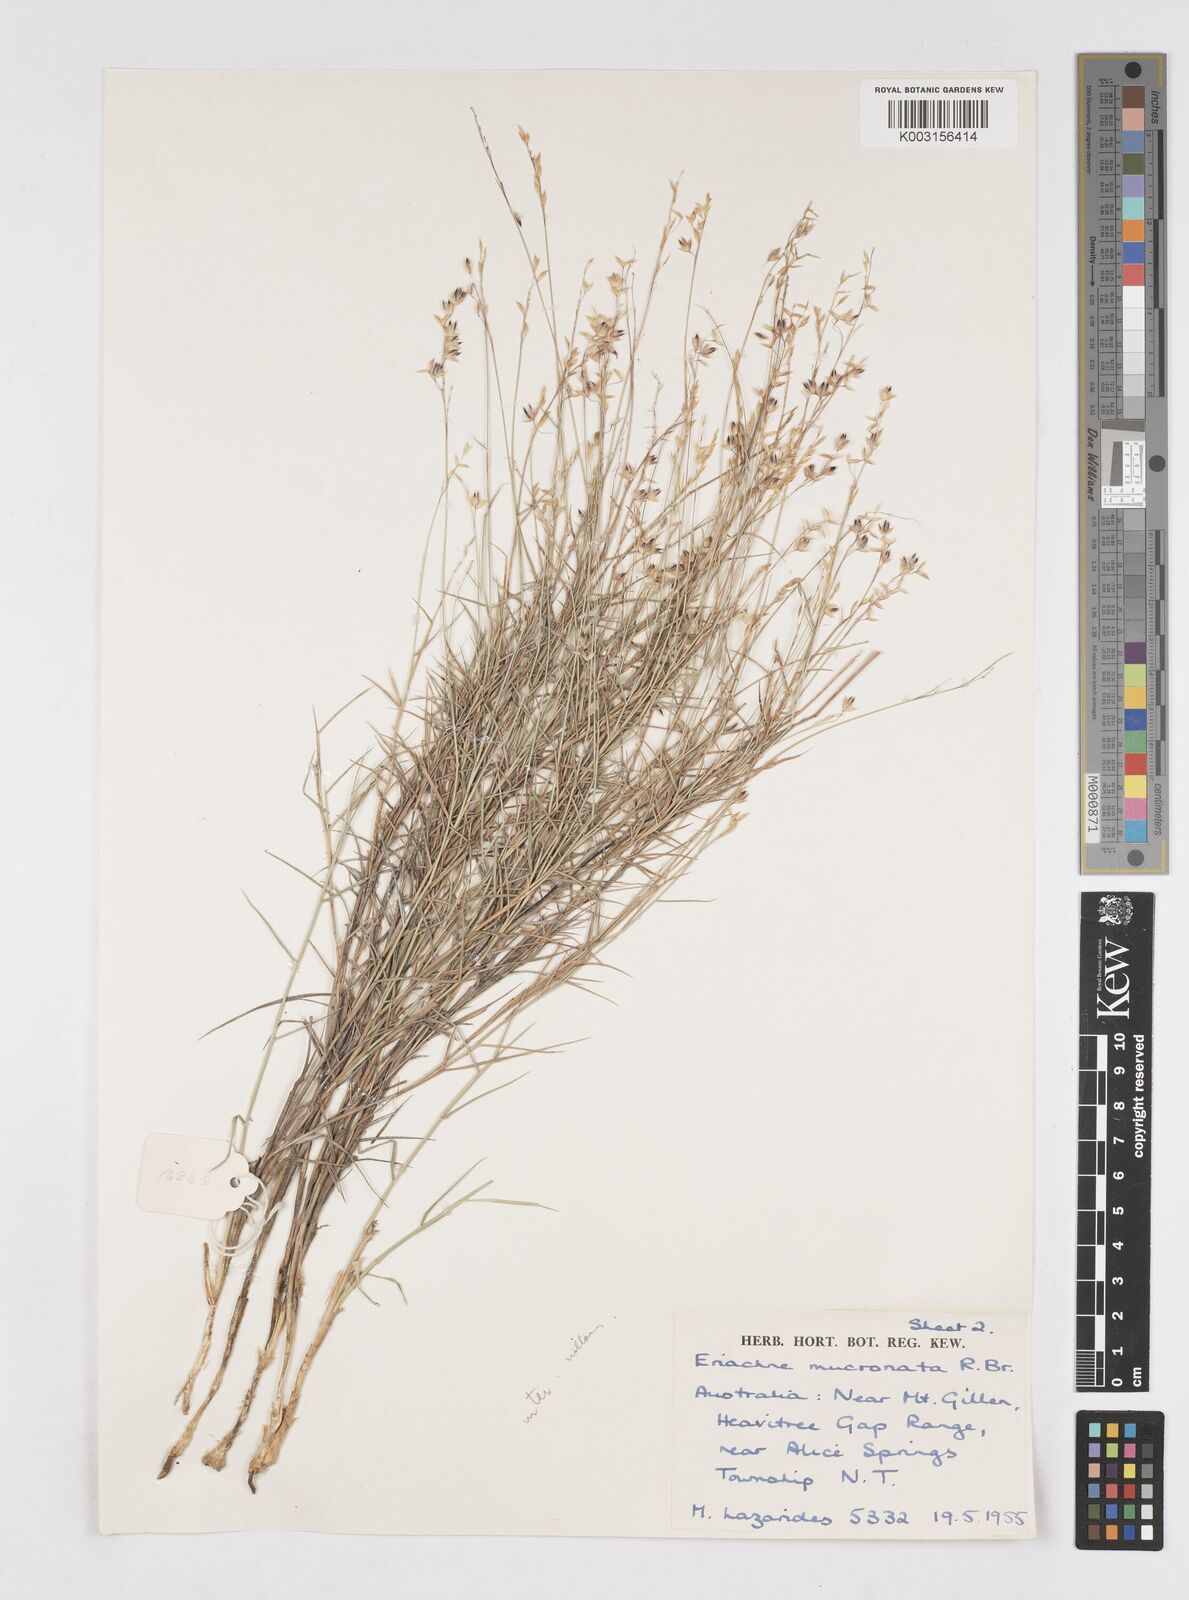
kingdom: Plantae
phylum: Tracheophyta
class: Liliopsida
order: Poales
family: Poaceae
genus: Eriachne
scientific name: Eriachne mucronata
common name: Mountain wanderrie grass
